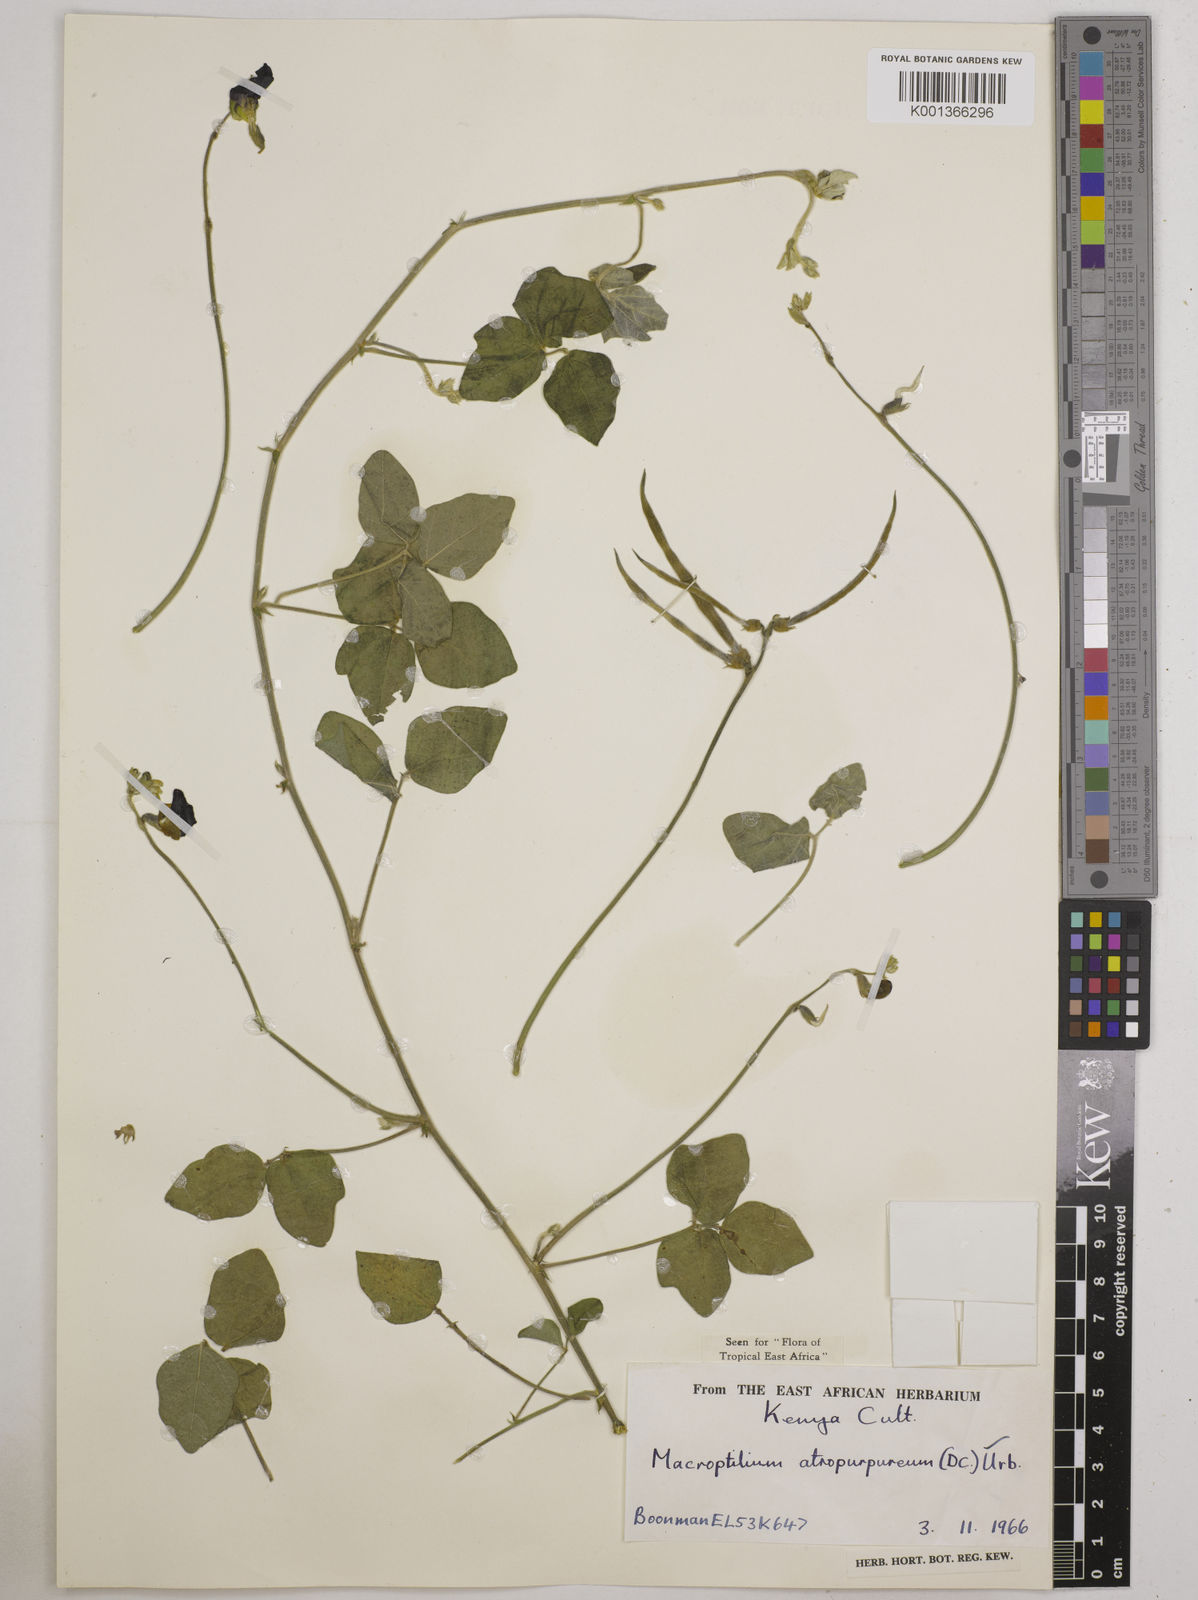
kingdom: Plantae
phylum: Tracheophyta
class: Magnoliopsida
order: Fabales
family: Fabaceae
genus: Macroptilium
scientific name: Macroptilium atropurpureum
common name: Purple bushbean
